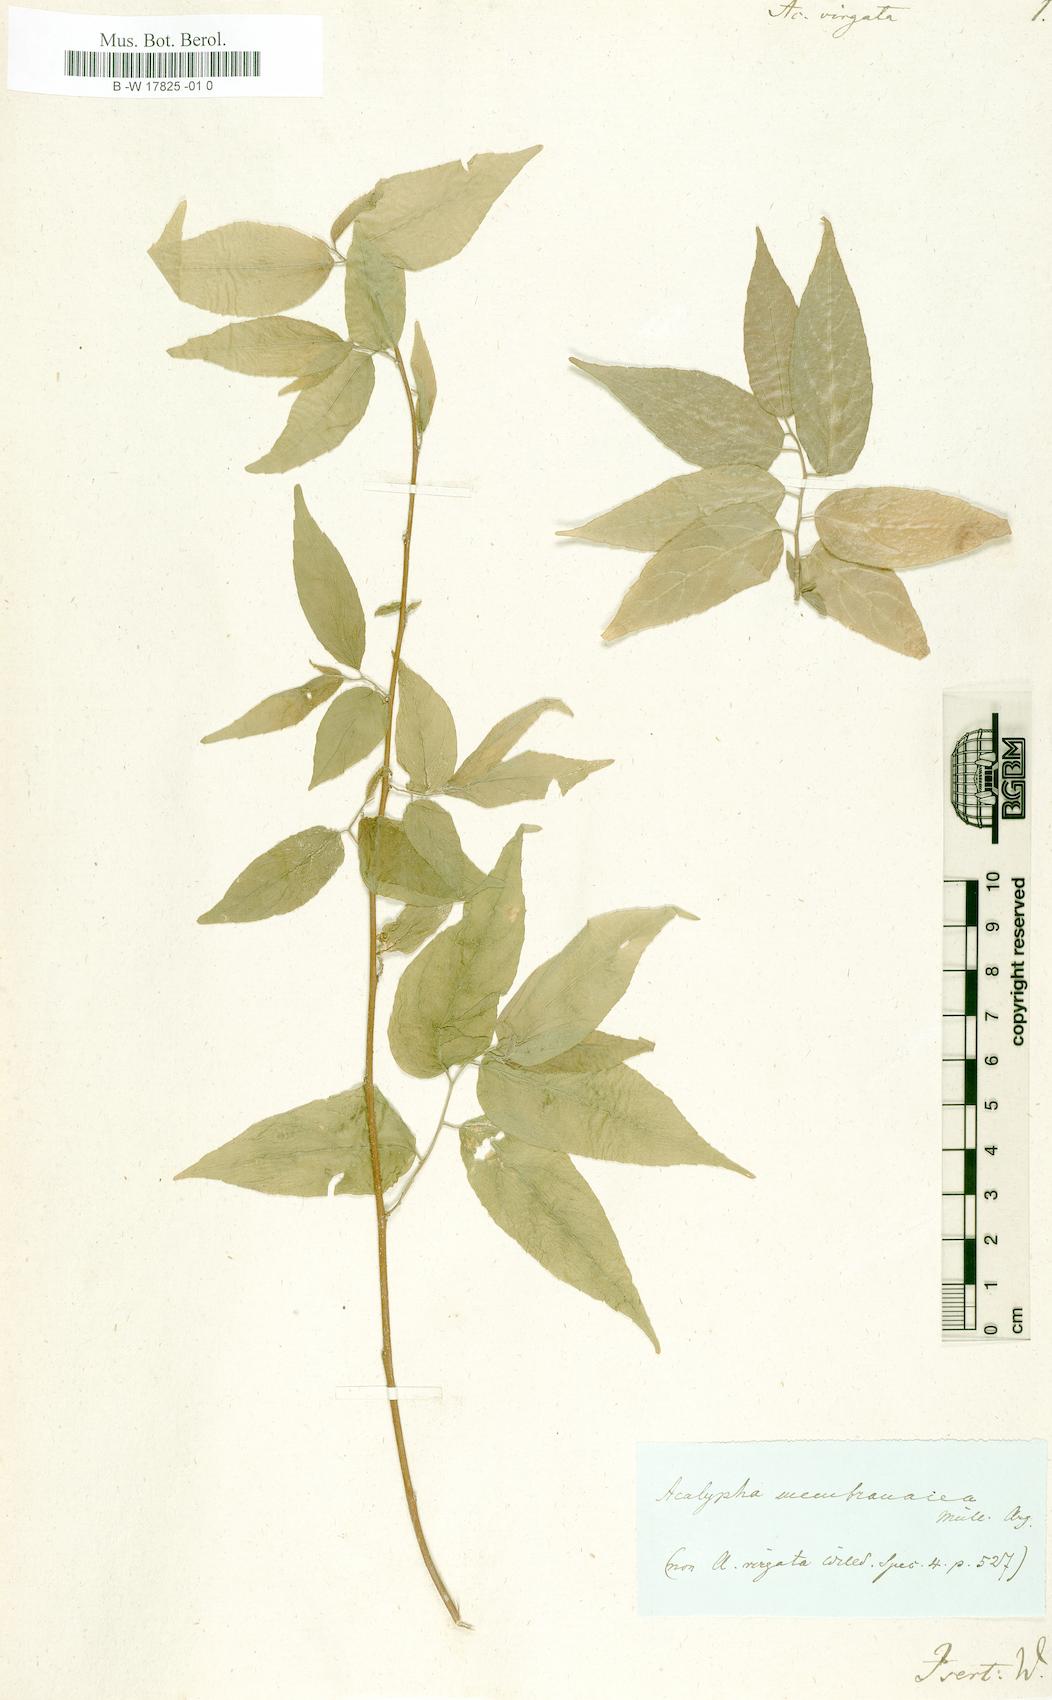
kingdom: Plantae
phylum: Tracheophyta
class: Magnoliopsida
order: Malpighiales
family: Euphorbiaceae
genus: Acalypha
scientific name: Acalypha virgata
